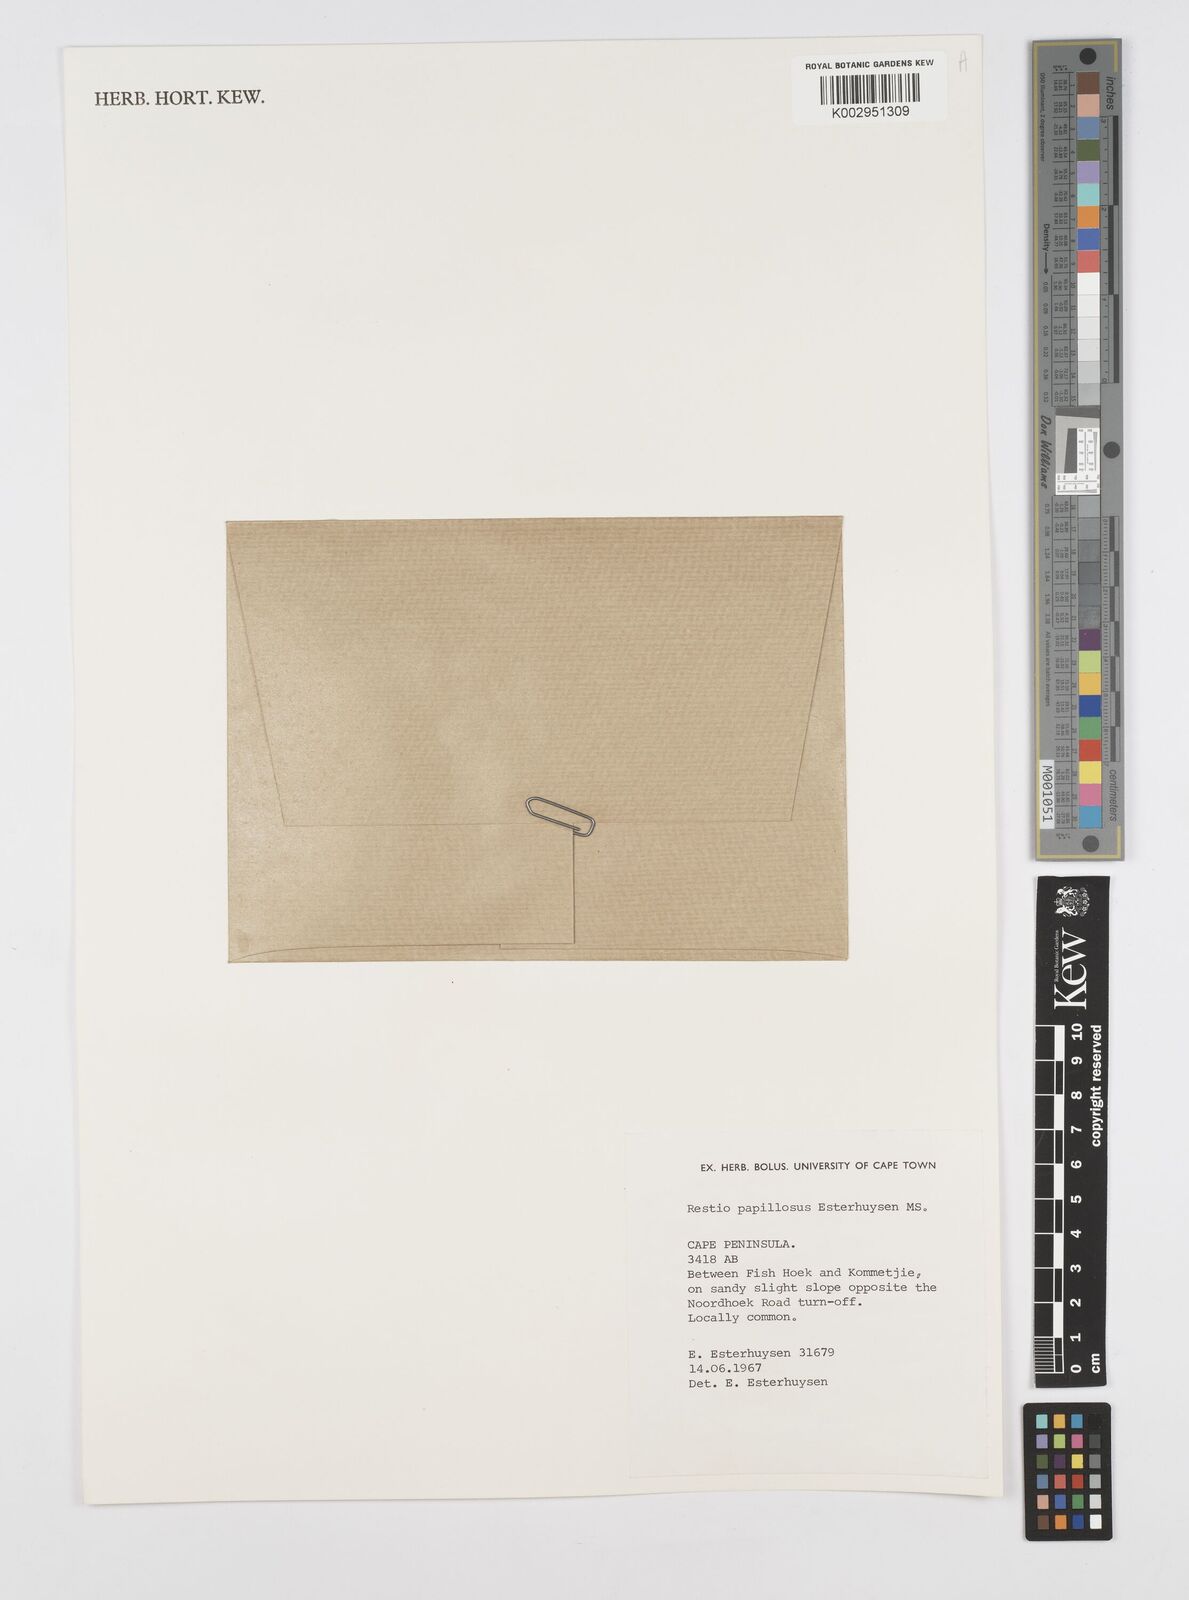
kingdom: Plantae
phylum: Tracheophyta
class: Liliopsida
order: Poales
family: Restionaceae
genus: Restio
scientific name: Restio papillosus
